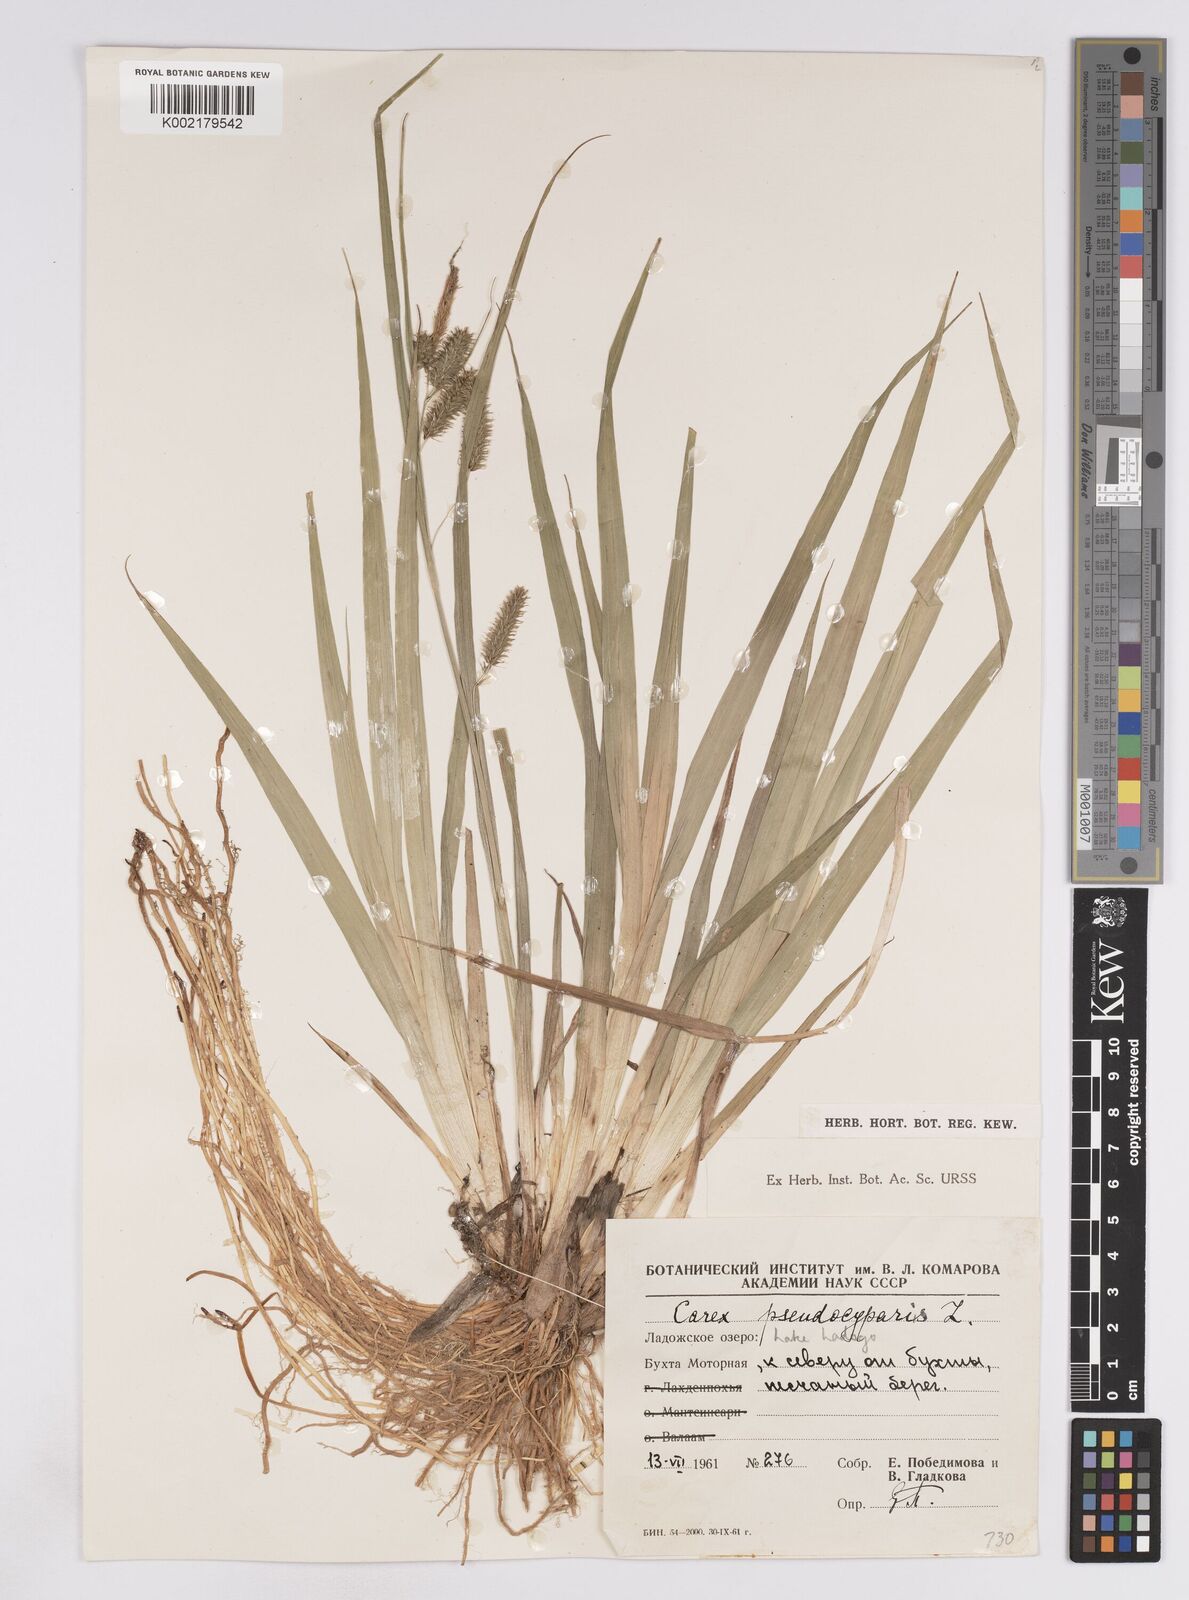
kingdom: Plantae
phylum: Tracheophyta
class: Liliopsida
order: Poales
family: Cyperaceae
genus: Carex
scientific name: Carex pseudocyperus
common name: Cyperus sedge
